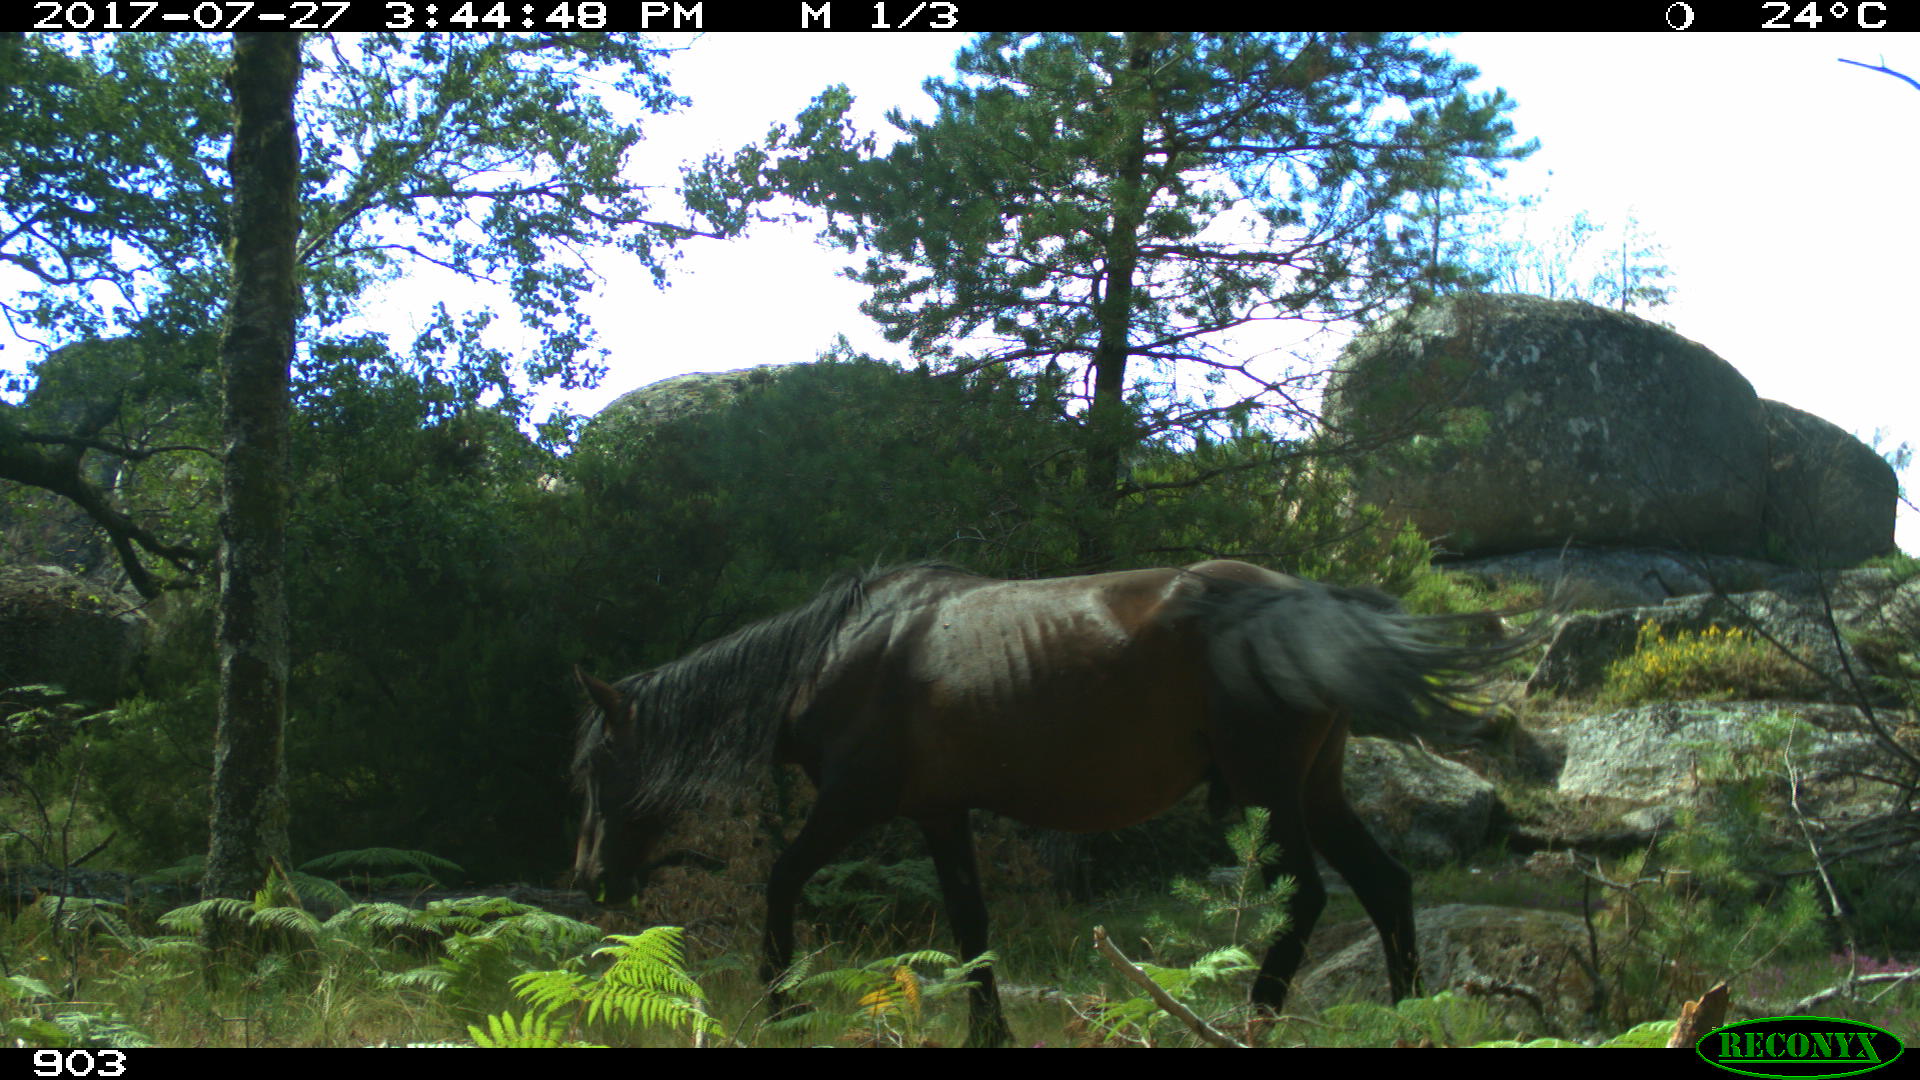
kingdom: Animalia
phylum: Chordata
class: Mammalia
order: Perissodactyla
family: Equidae
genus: Equus
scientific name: Equus caballus
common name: Horse
